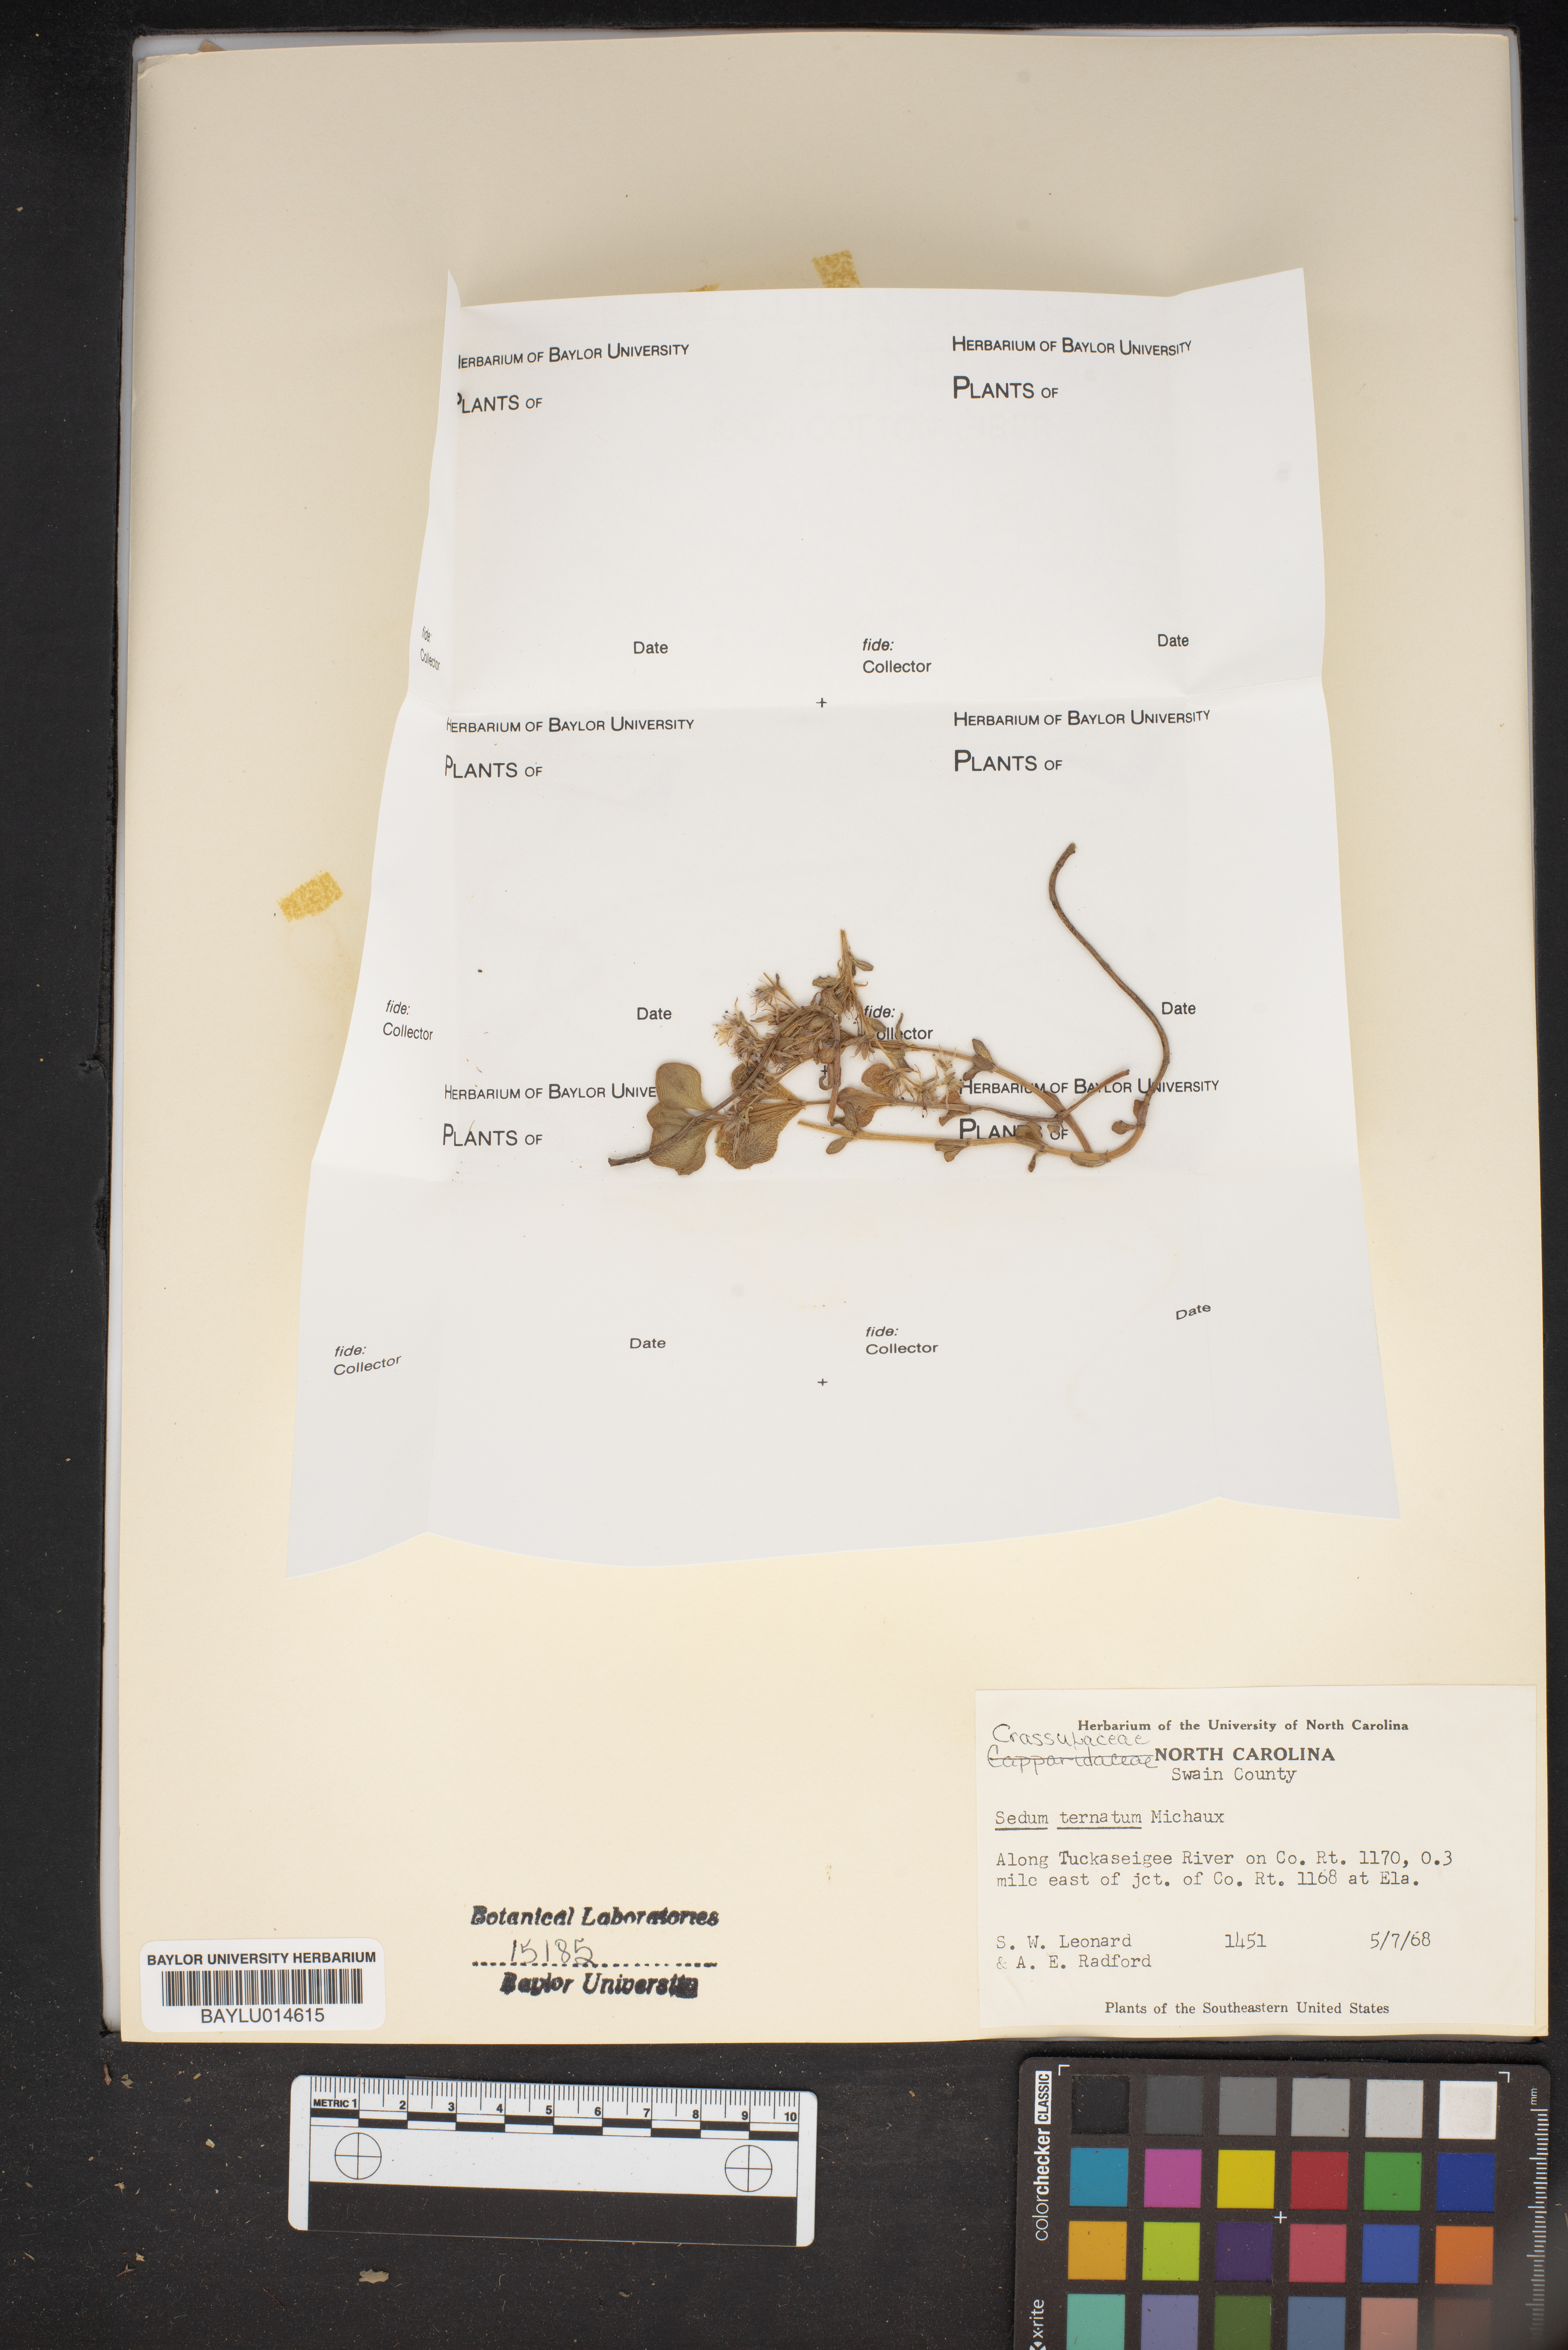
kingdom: Plantae
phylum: Tracheophyta
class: Magnoliopsida
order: Saxifragales
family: Crassulaceae
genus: Sedum
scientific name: Sedum ternatum
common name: Wild stonecrop
